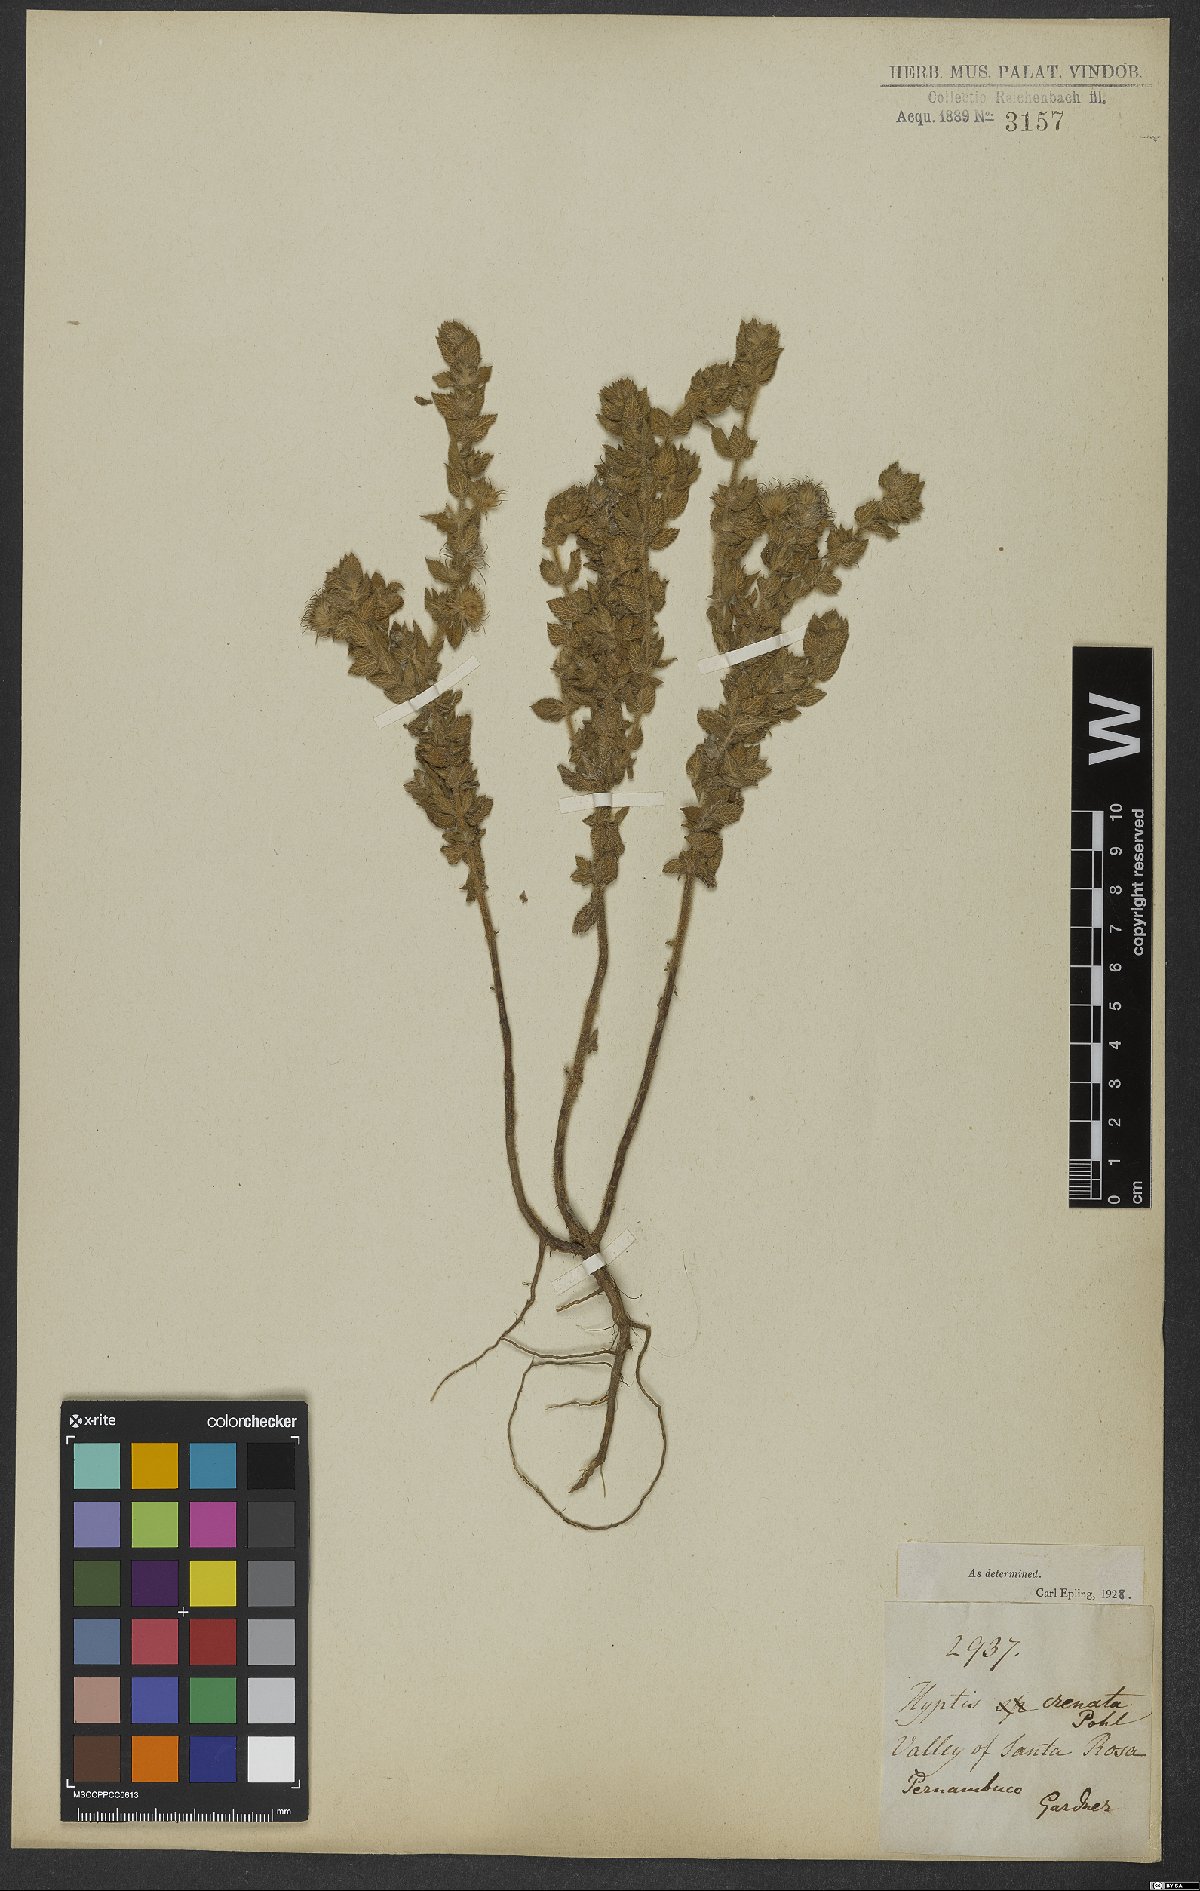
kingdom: Plantae
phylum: Tracheophyta
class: Magnoliopsida
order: Lamiales
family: Lamiaceae
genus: Hyptis
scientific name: Hyptis crenata
